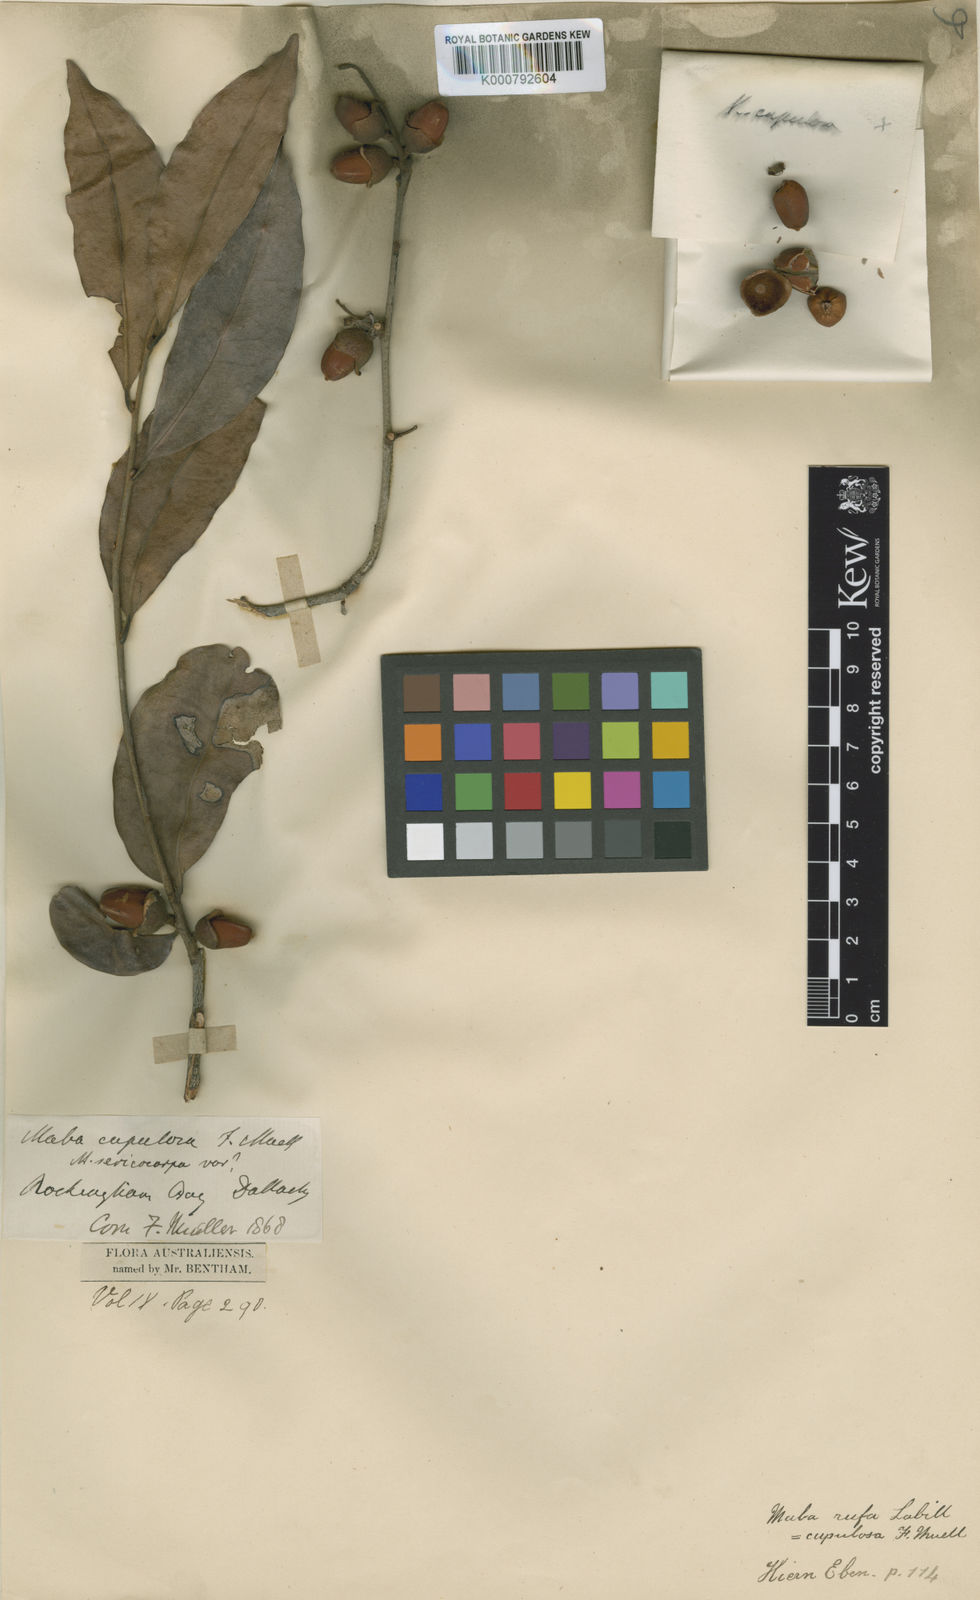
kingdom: Plantae
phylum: Tracheophyta
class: Magnoliopsida
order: Ericales
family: Ebenaceae
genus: Diospyros
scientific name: Diospyros laurina
